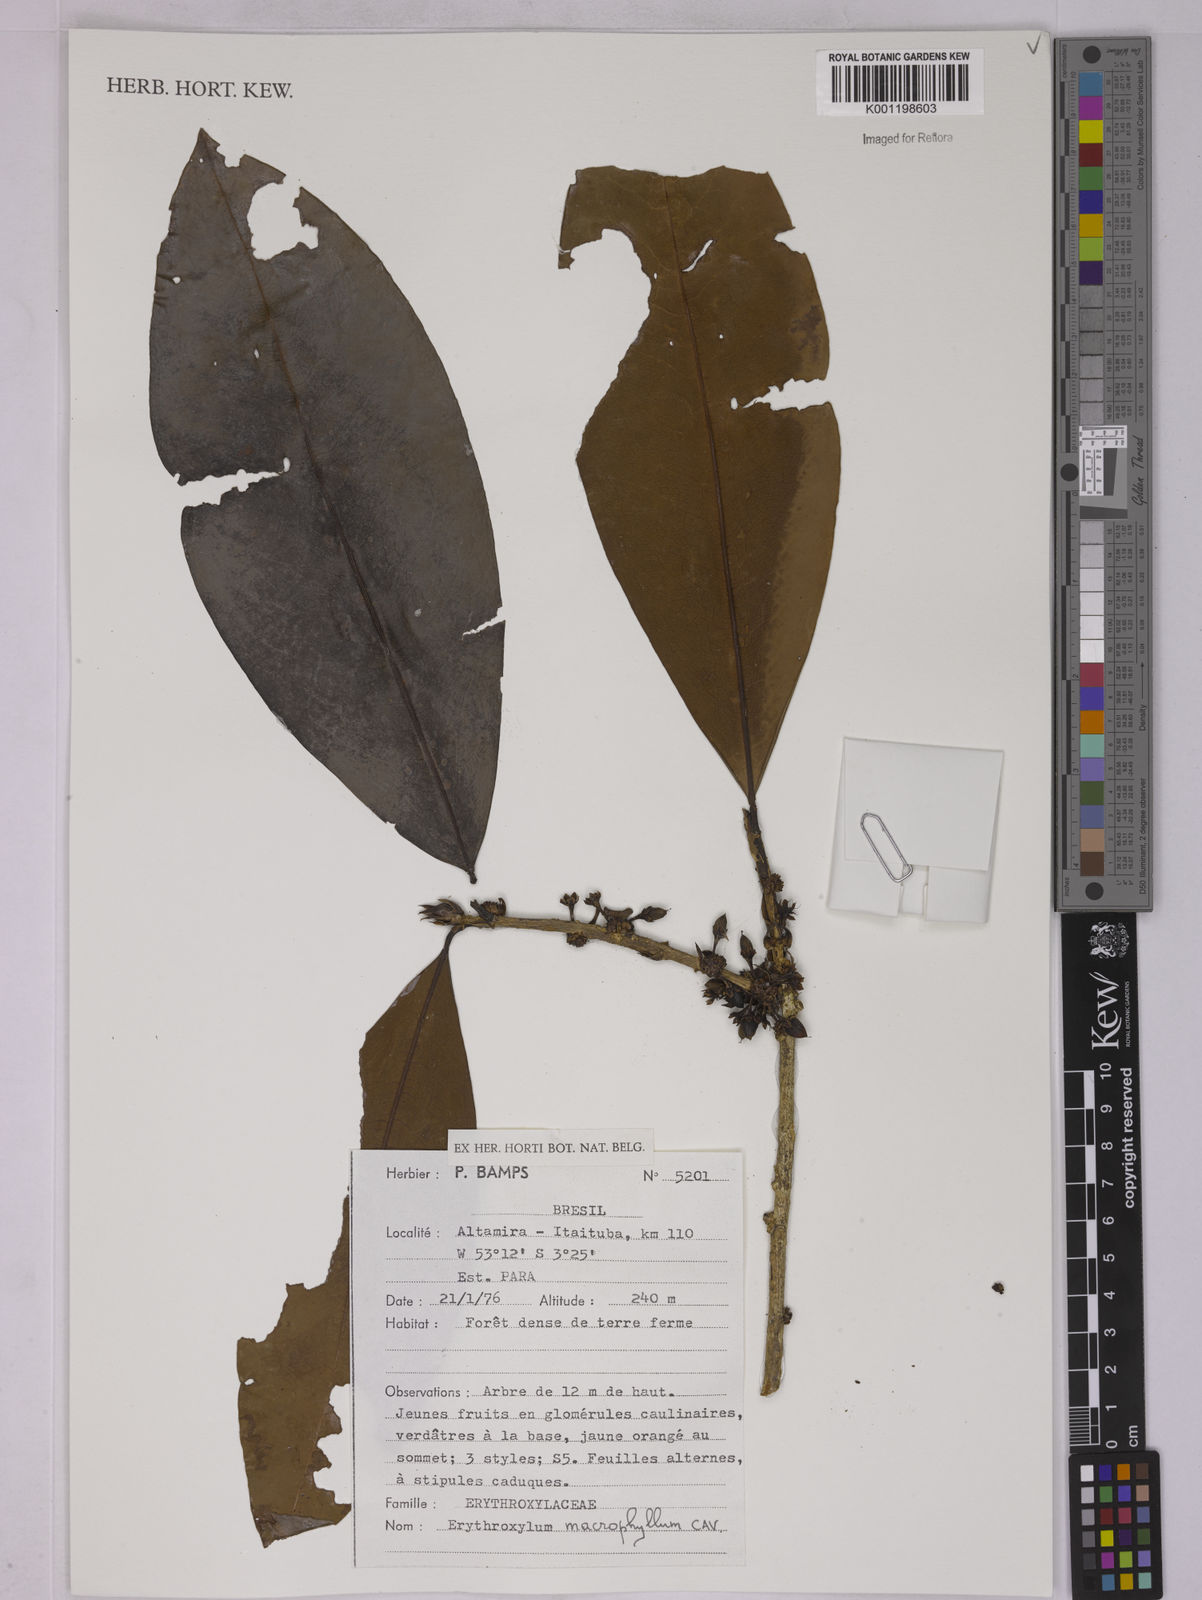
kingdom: Plantae
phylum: Tracheophyta
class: Magnoliopsida
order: Malpighiales
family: Erythroxylaceae
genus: Erythroxylum
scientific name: Erythroxylum macrophyllum
